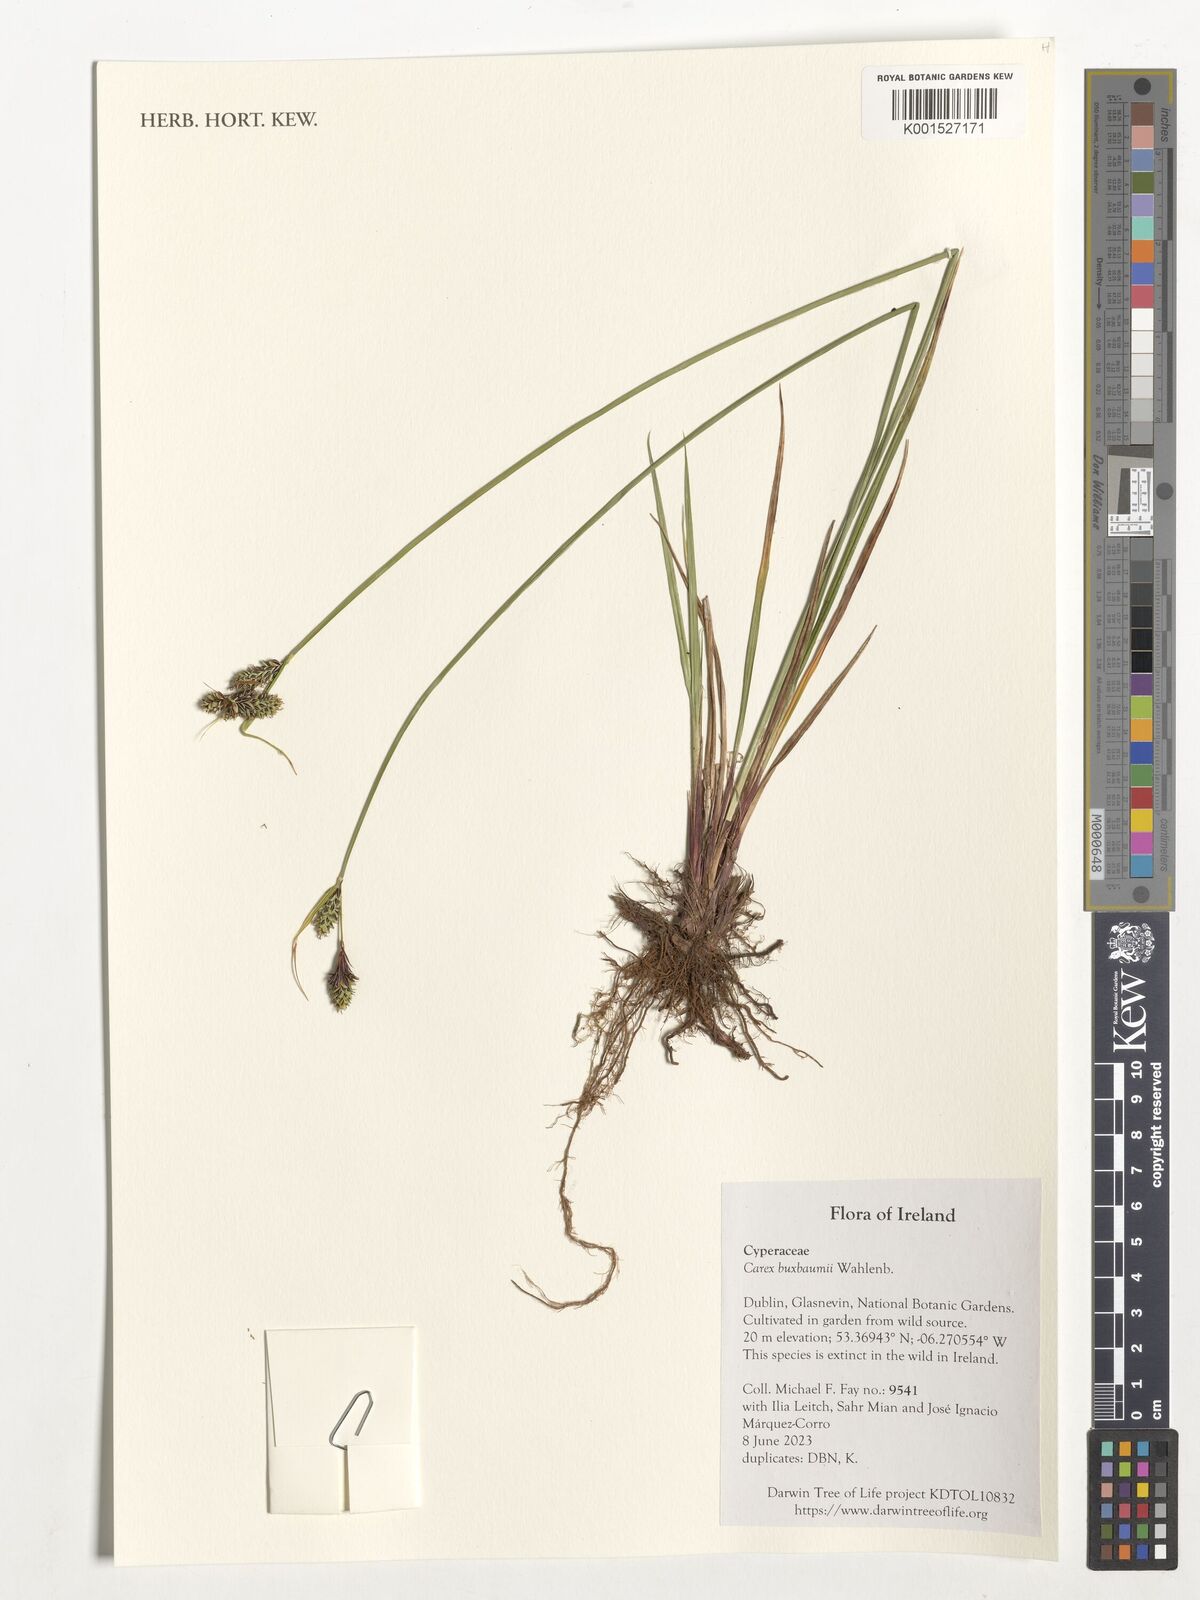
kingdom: Plantae
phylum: Tracheophyta
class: Liliopsida
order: Poales
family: Cyperaceae
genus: Carex
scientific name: Carex buxbaumii
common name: Club sedge
